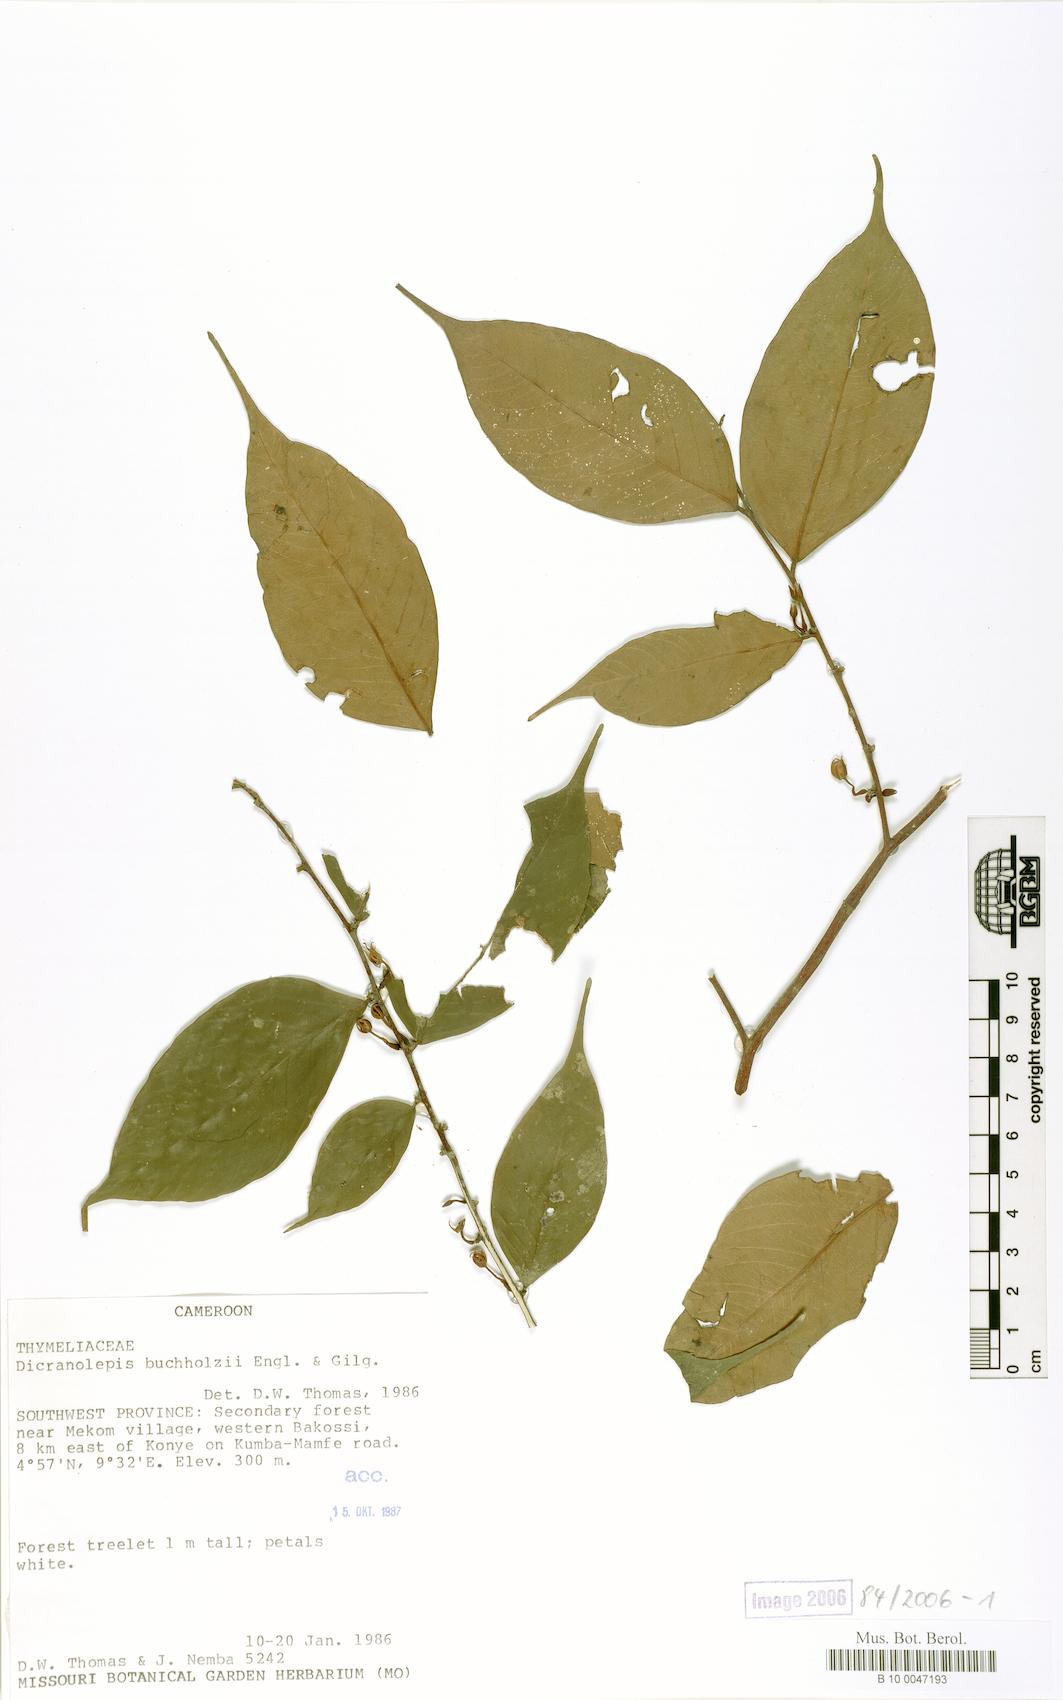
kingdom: Plantae
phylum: Tracheophyta
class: Magnoliopsida
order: Malvales
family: Thymelaeaceae
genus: Dicranolepis
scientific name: Dicranolepis buchholzii
